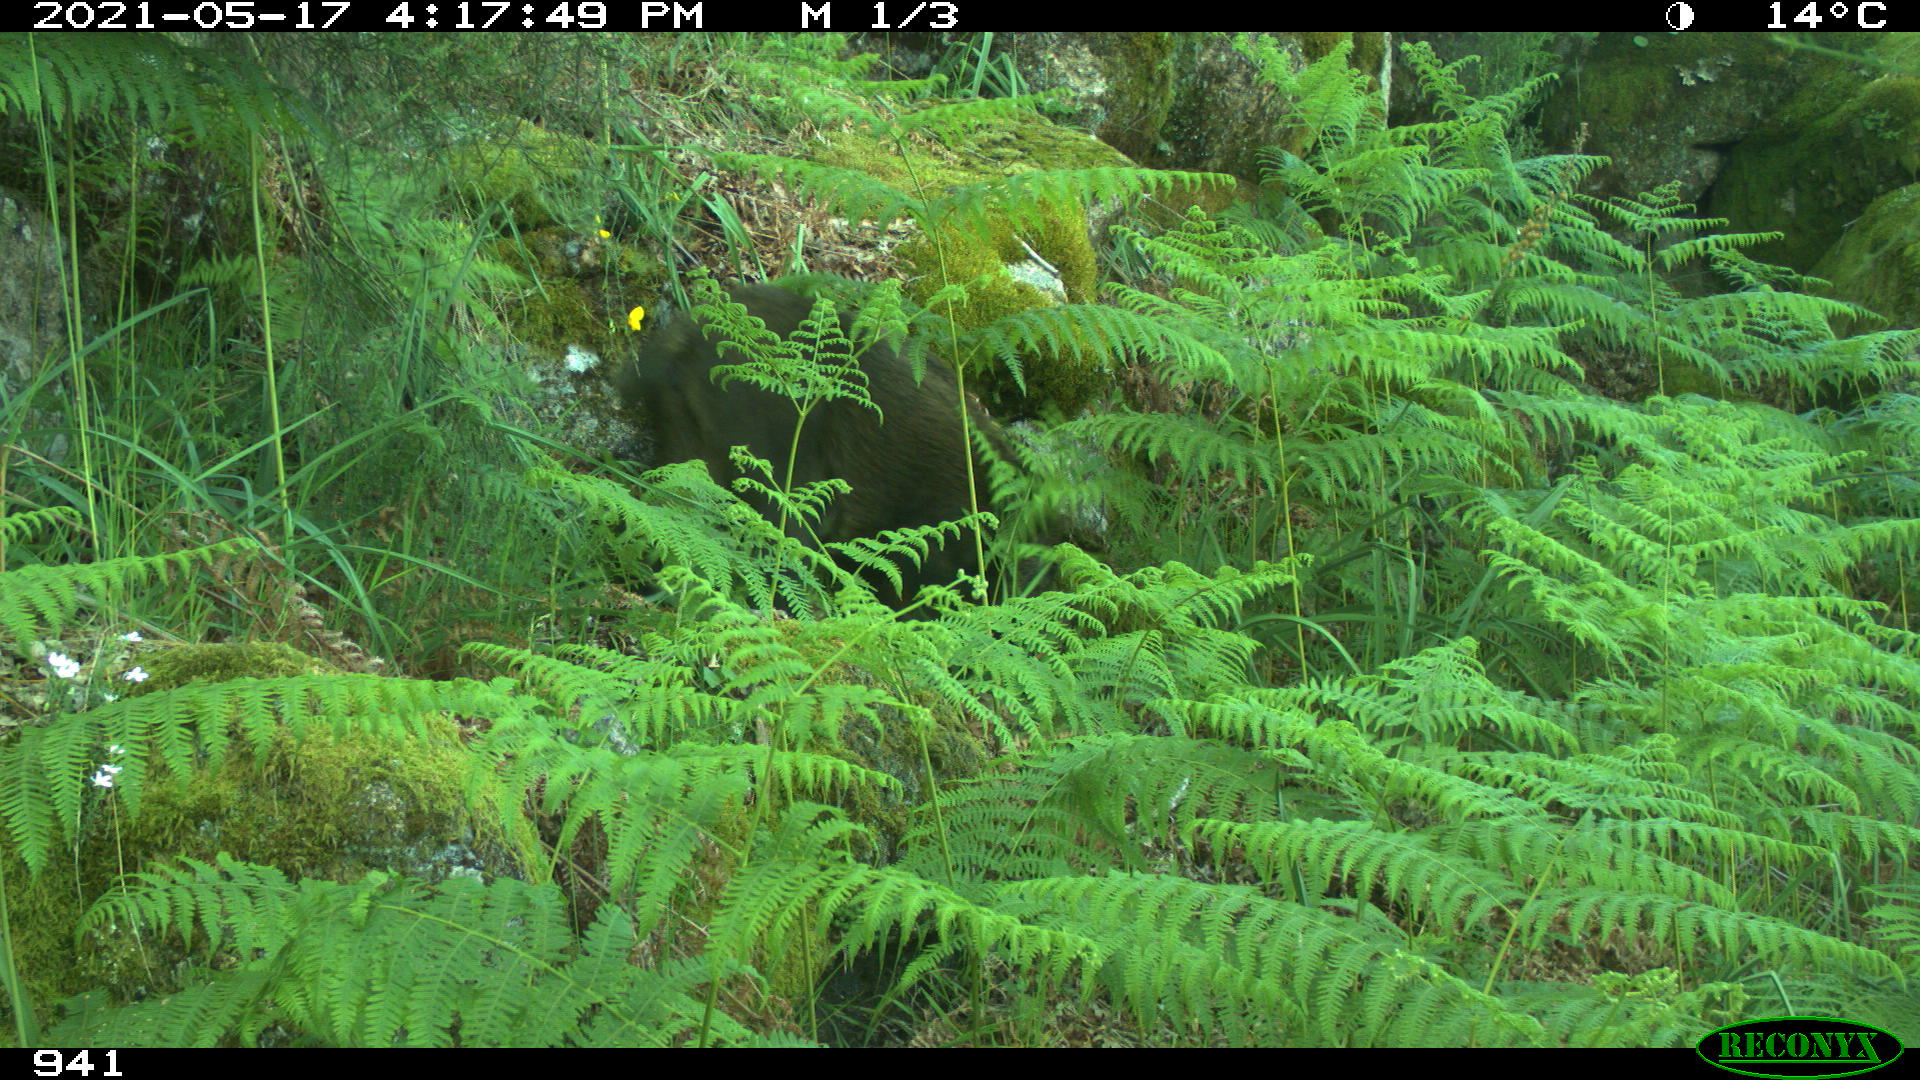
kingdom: Animalia
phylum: Chordata
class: Mammalia
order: Artiodactyla
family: Suidae
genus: Sus
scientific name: Sus scrofa
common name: Wild boar
